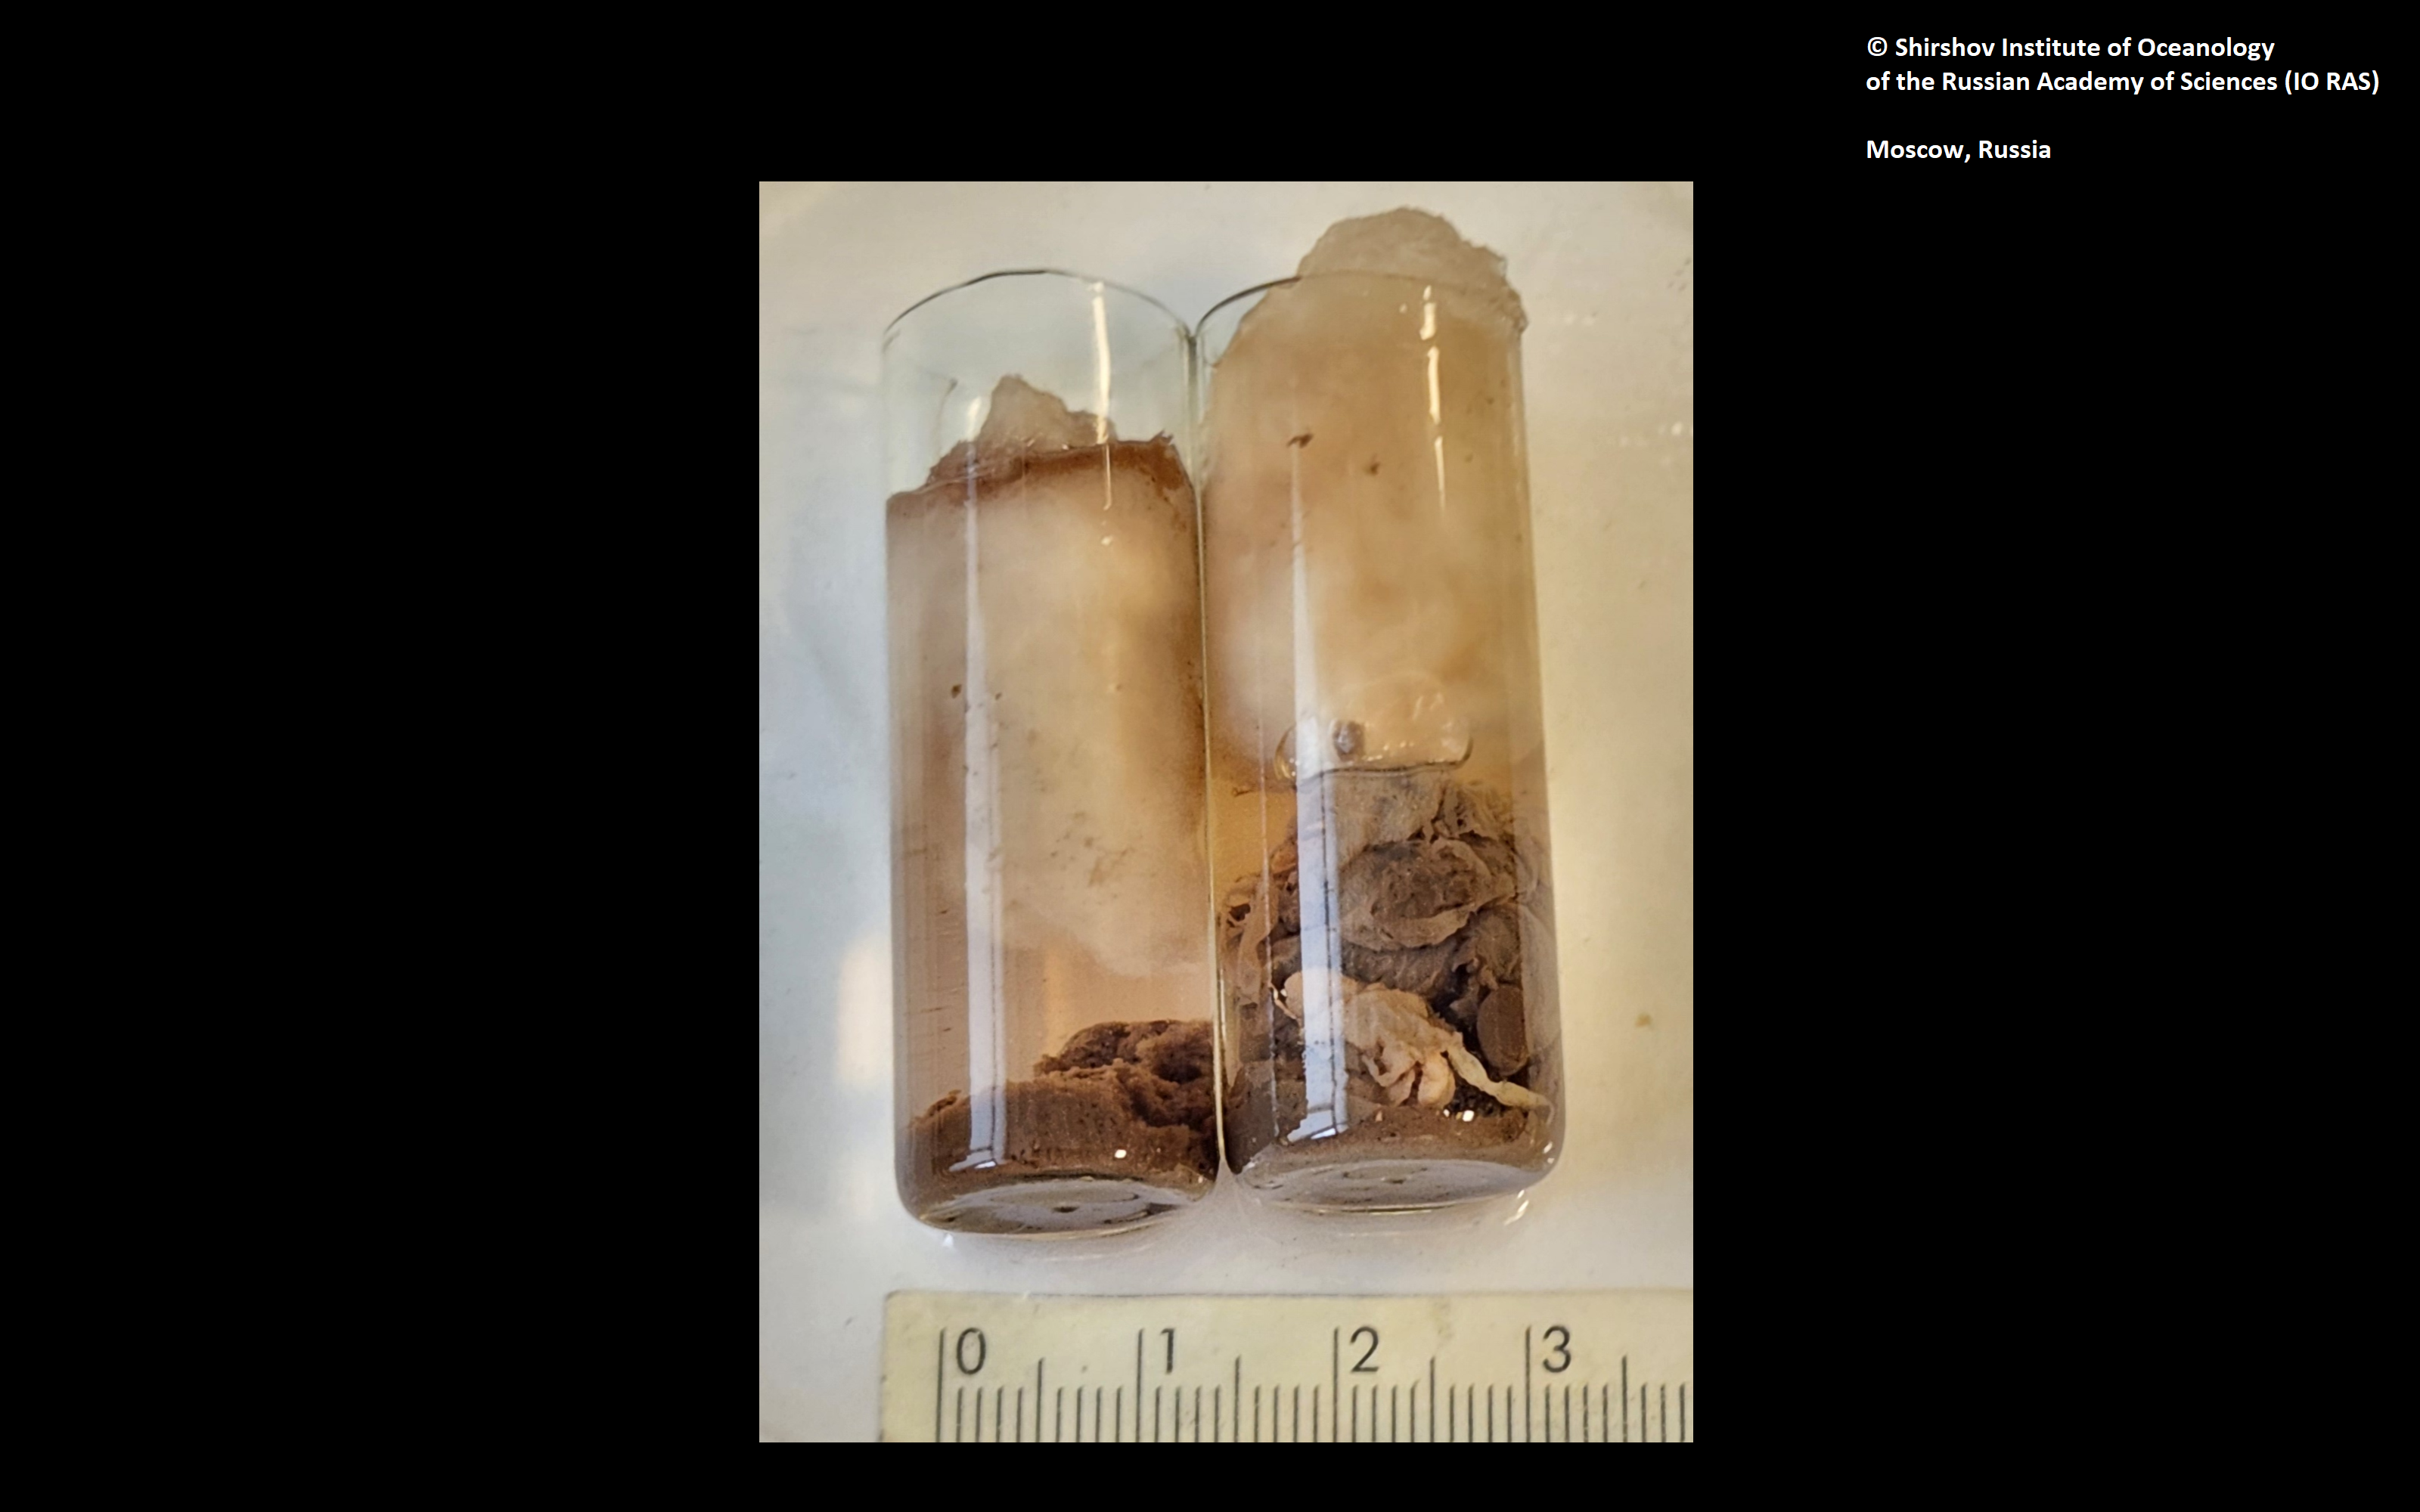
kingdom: Animalia
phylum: Annelida
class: Polychaeta
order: Echiuroidea
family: Bonelliidae
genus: Vitjazema
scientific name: Vitjazema ultraabyssalis
